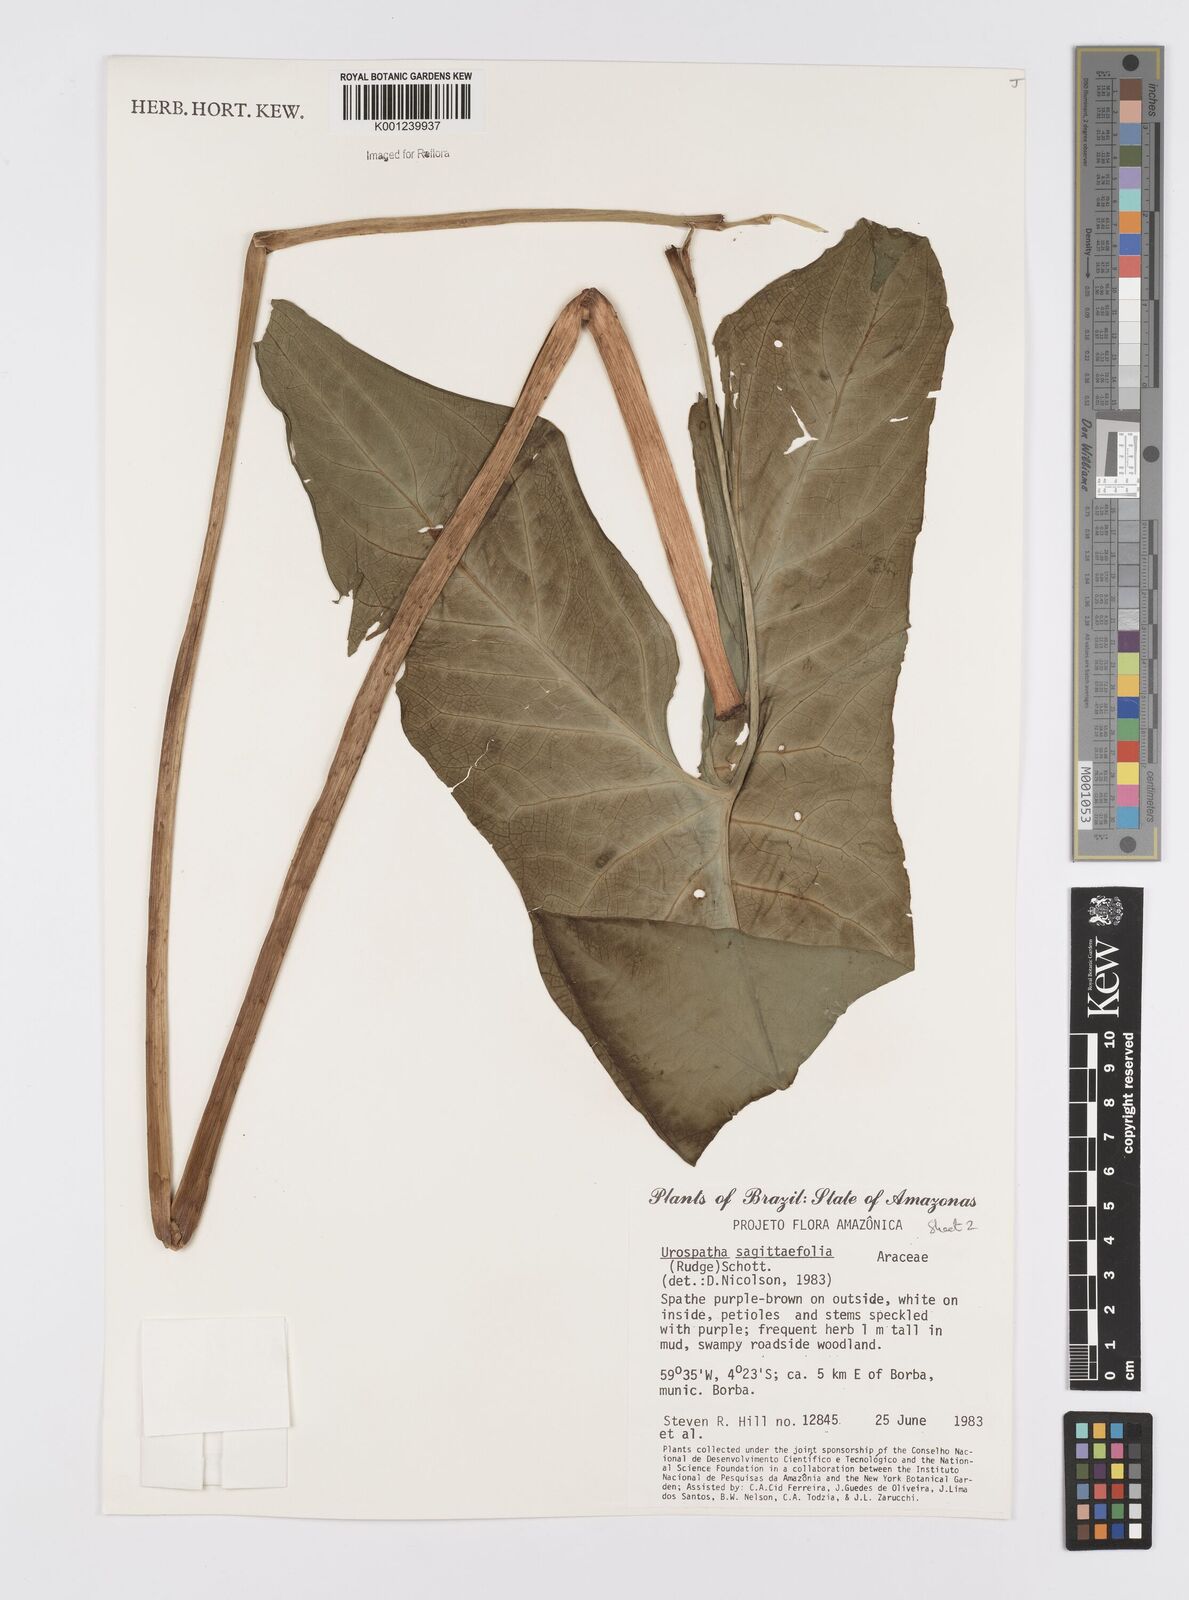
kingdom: Plantae
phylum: Tracheophyta
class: Liliopsida
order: Alismatales
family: Araceae
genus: Urospatha
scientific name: Urospatha sagittifolia
